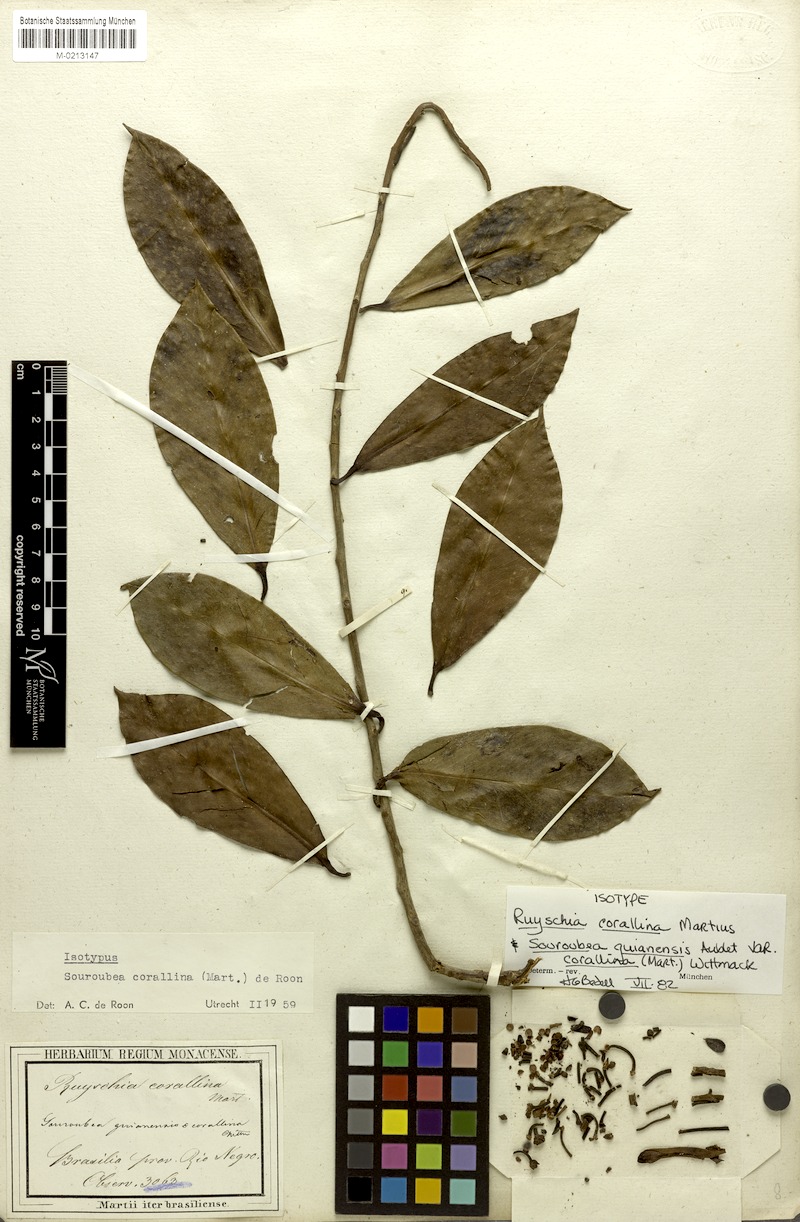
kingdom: Plantae
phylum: Tracheophyta
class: Magnoliopsida
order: Ericales
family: Marcgraviaceae
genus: Souroubea
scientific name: Souroubea corallina
